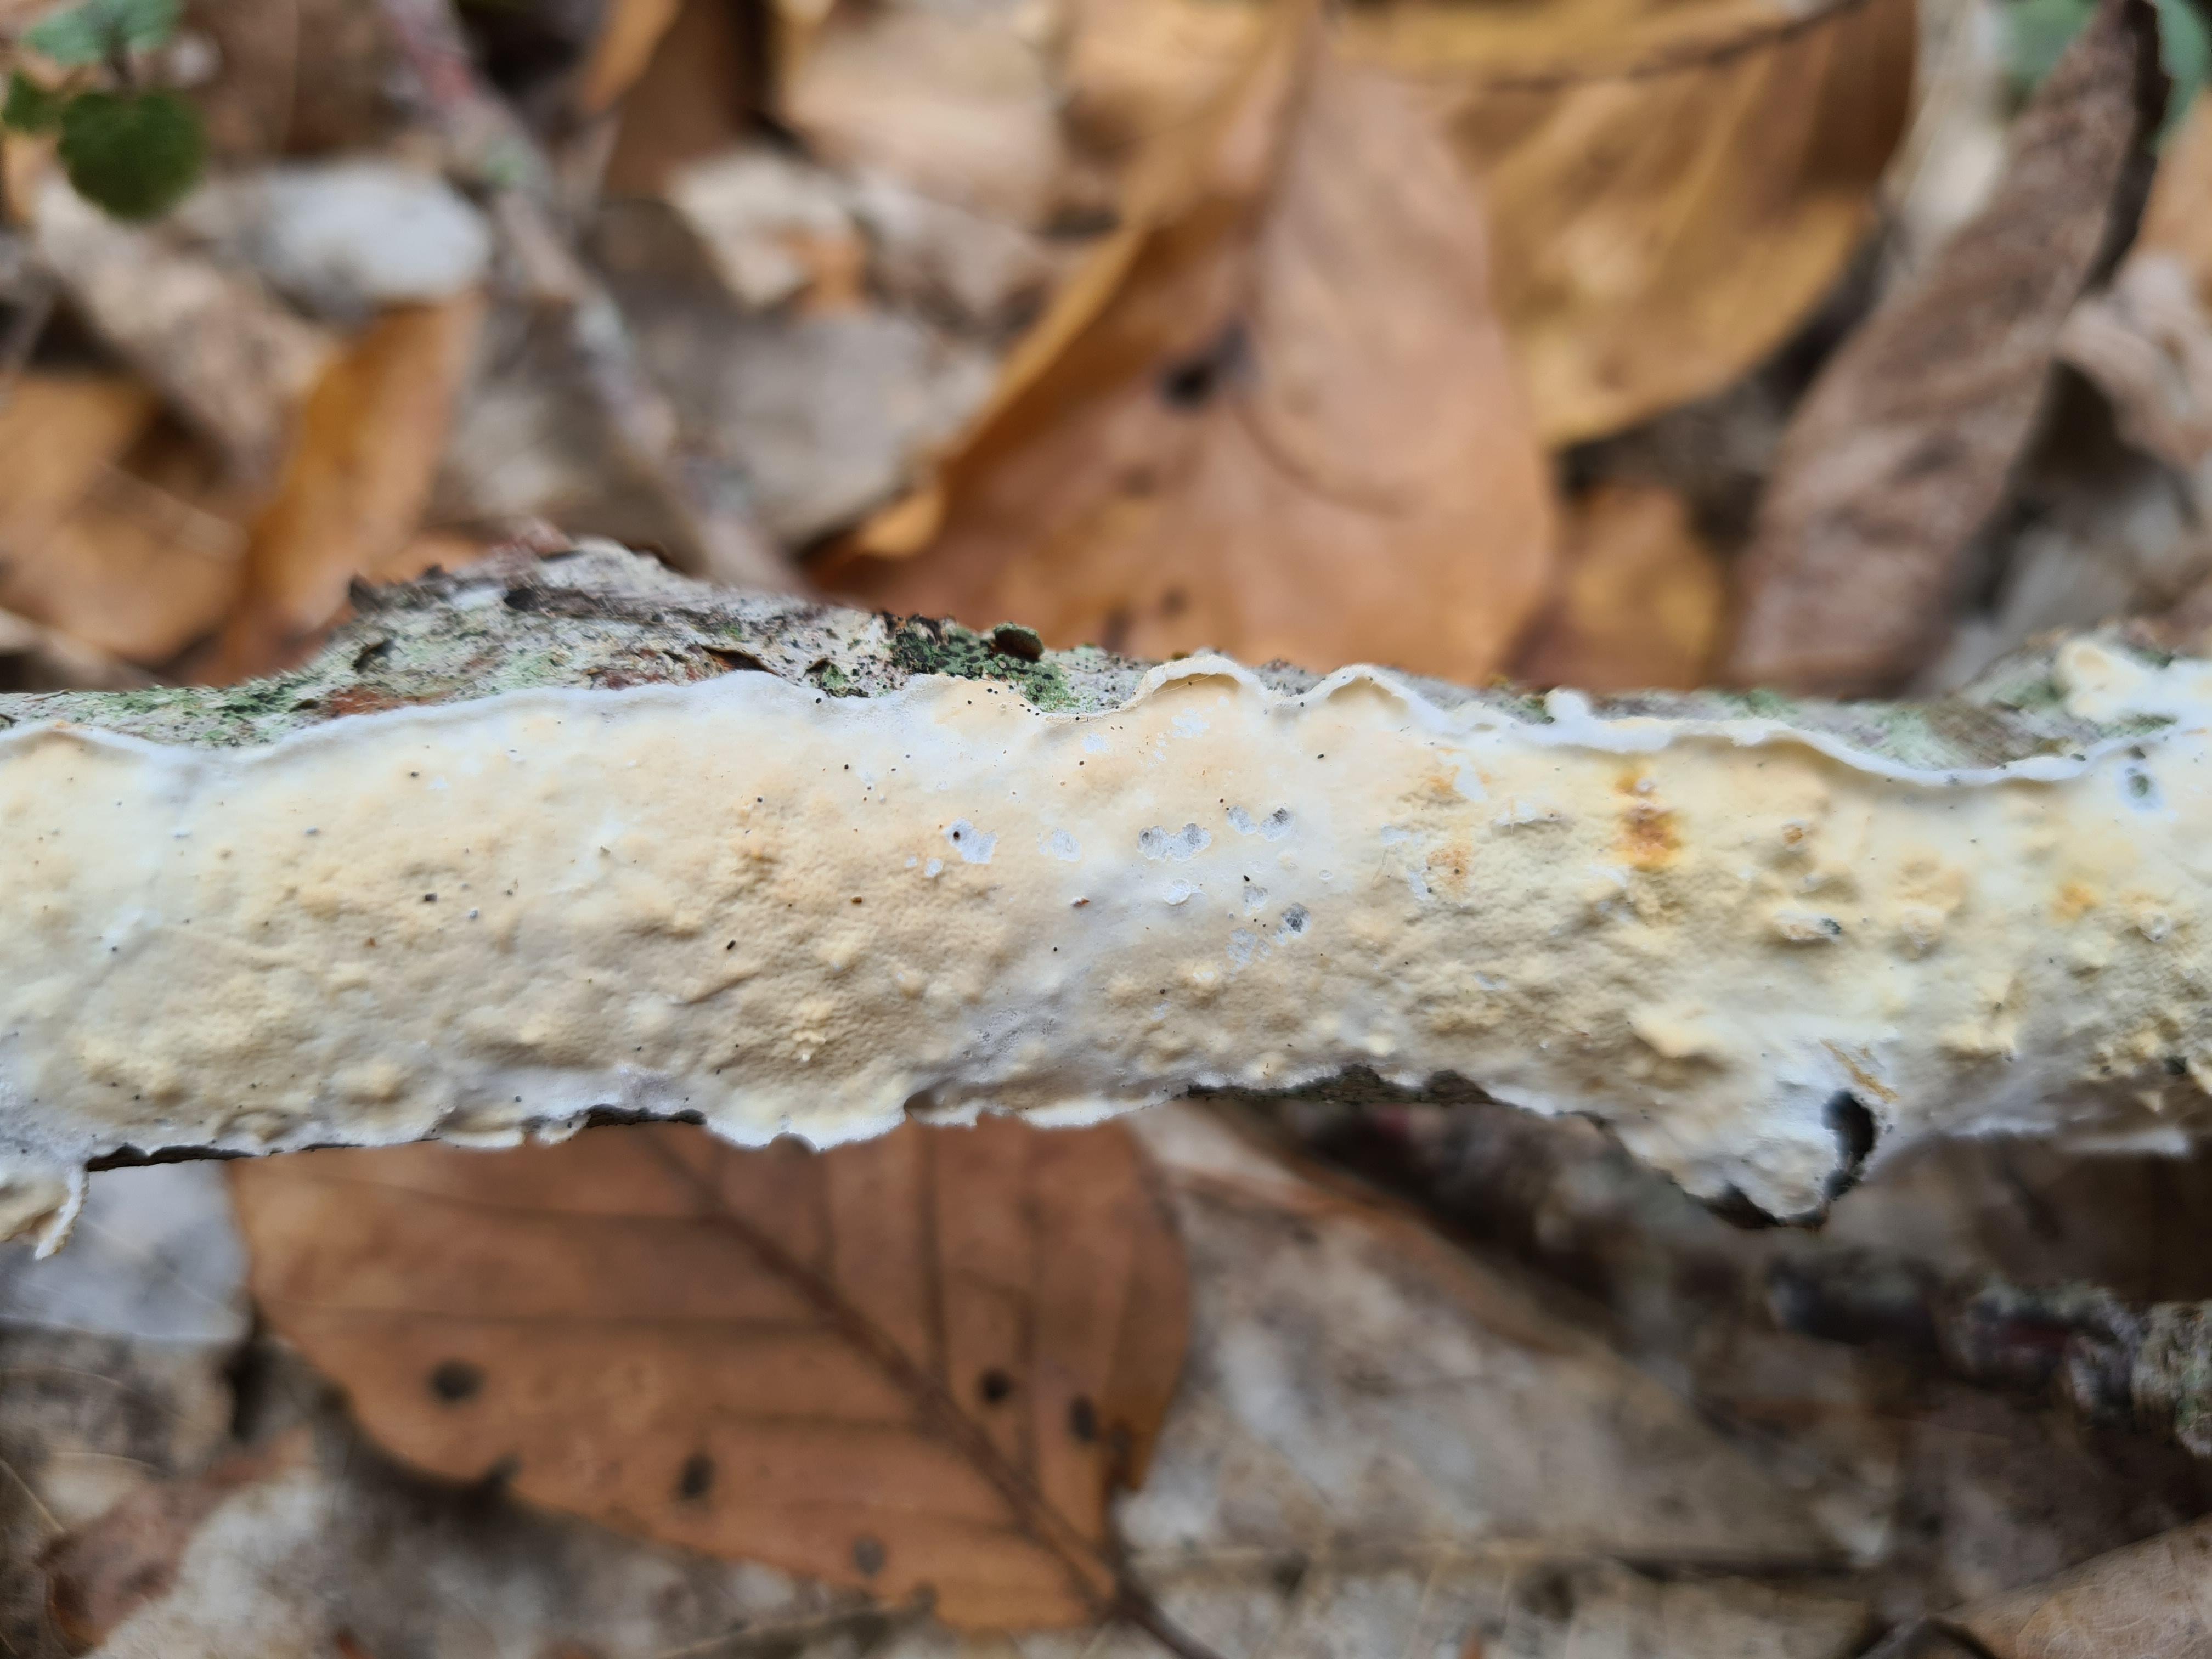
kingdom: Fungi
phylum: Basidiomycota
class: Agaricomycetes
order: Polyporales
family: Irpicaceae
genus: Byssomerulius
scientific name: Byssomerulius corium
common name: læder-åresvamp
